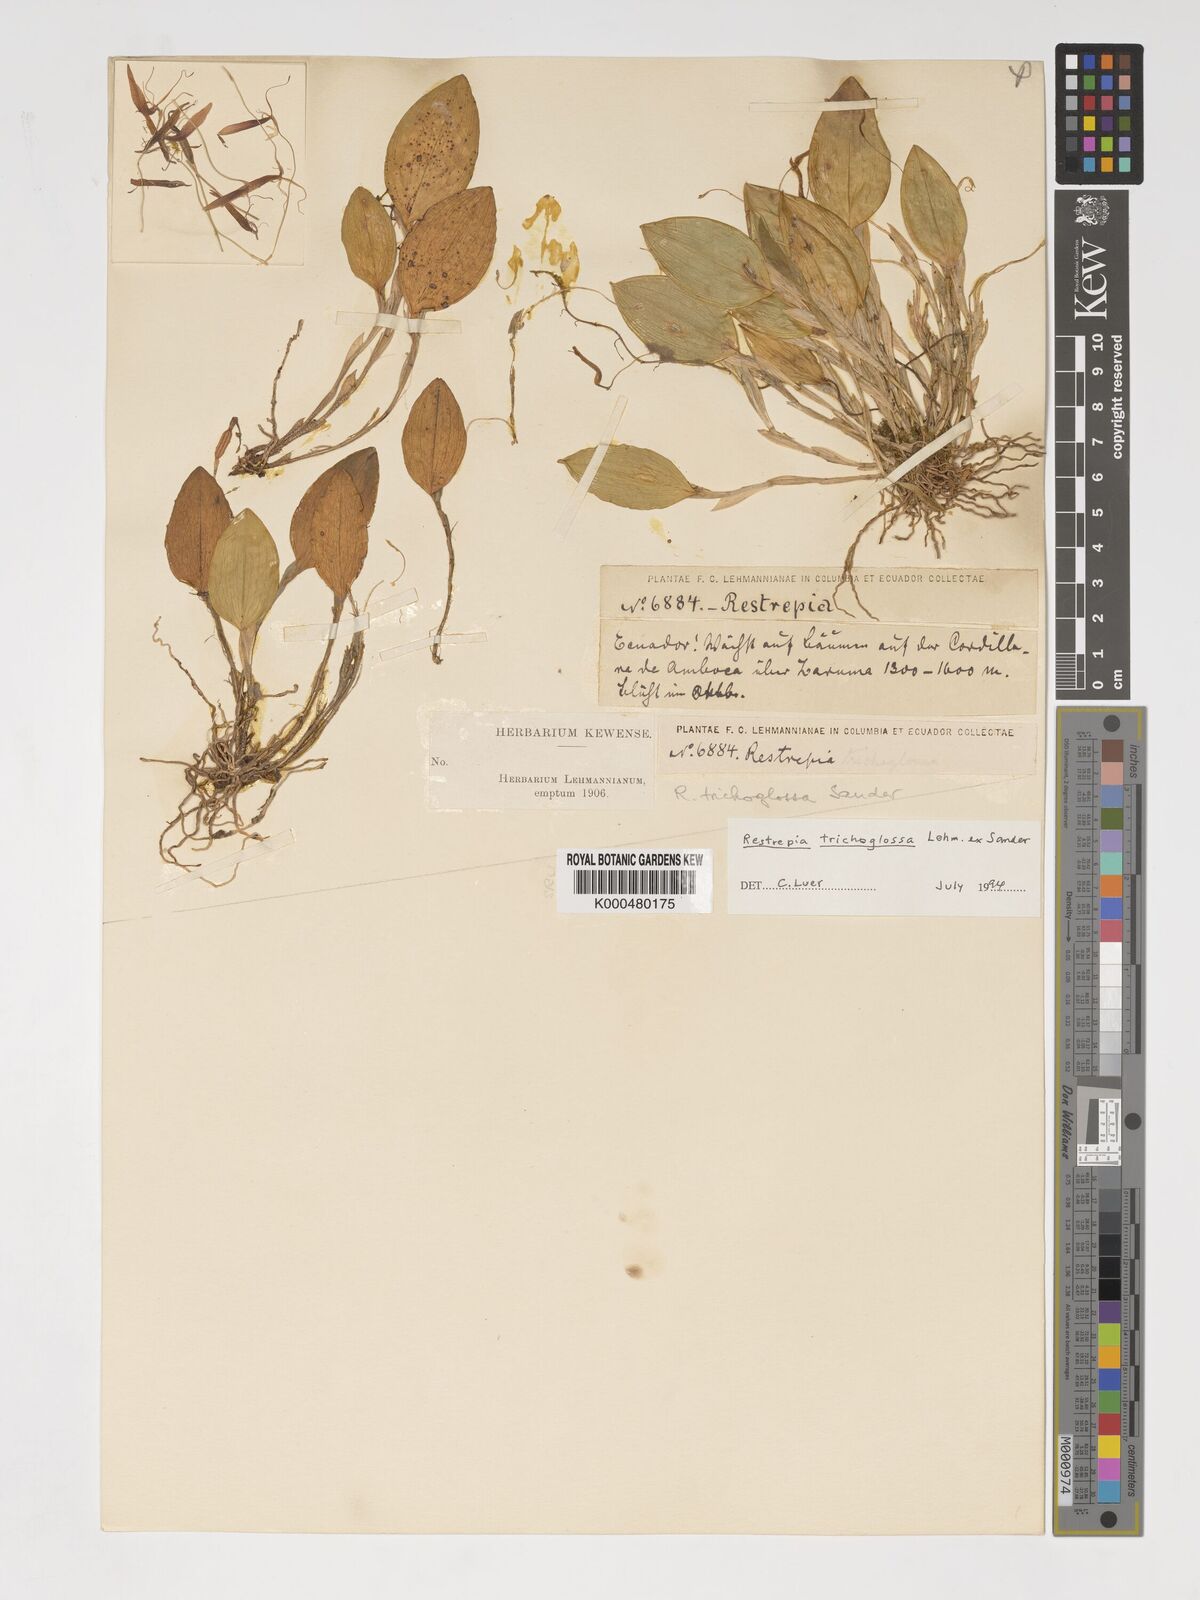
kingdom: Plantae
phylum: Tracheophyta
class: Liliopsida
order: Asparagales
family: Orchidaceae
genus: Pterostylis
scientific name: Pterostylis
